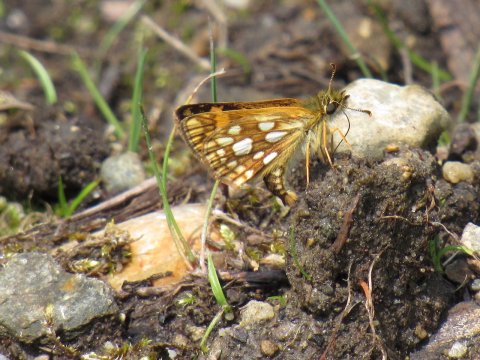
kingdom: Animalia
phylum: Arthropoda
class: Insecta
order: Lepidoptera
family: Hesperiidae
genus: Carterocephalus
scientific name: Carterocephalus palaemon
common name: Chequered Skipper
